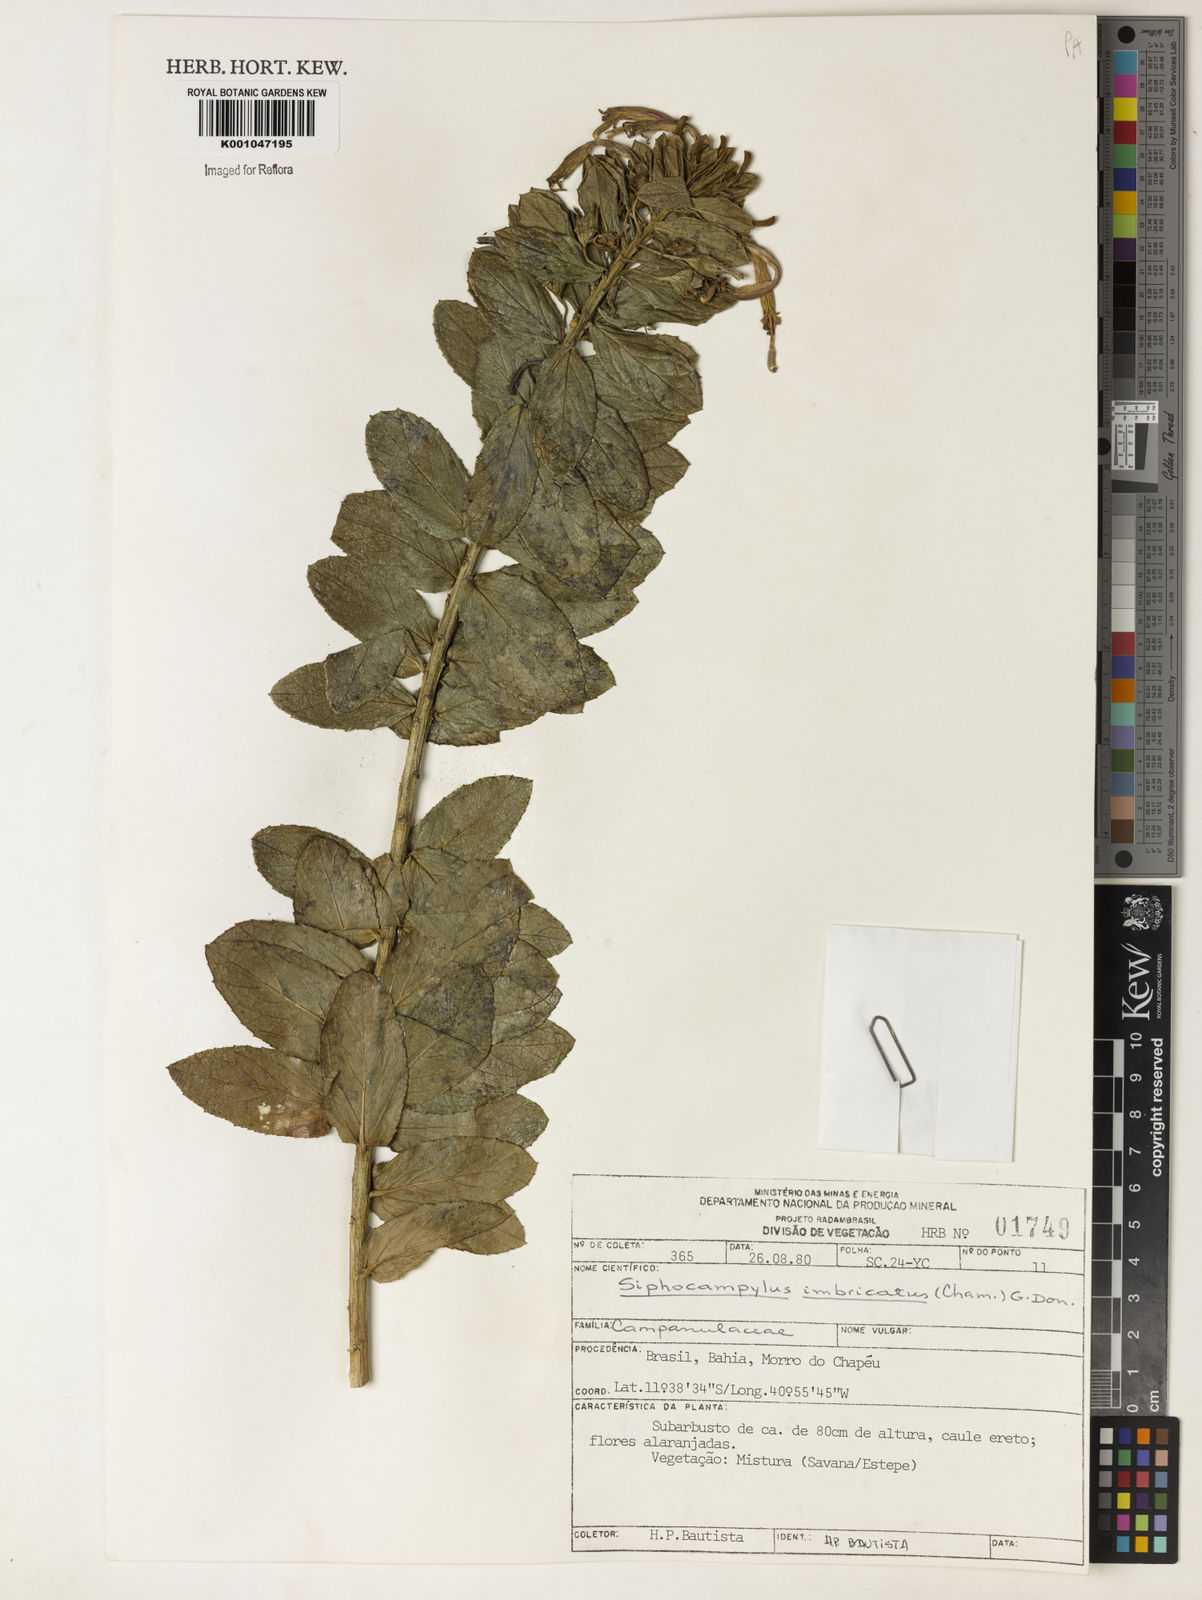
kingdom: Plantae
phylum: Tracheophyta
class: Magnoliopsida
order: Asterales
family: Campanulaceae
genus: Siphocampylus
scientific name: Siphocampylus imbricatus
